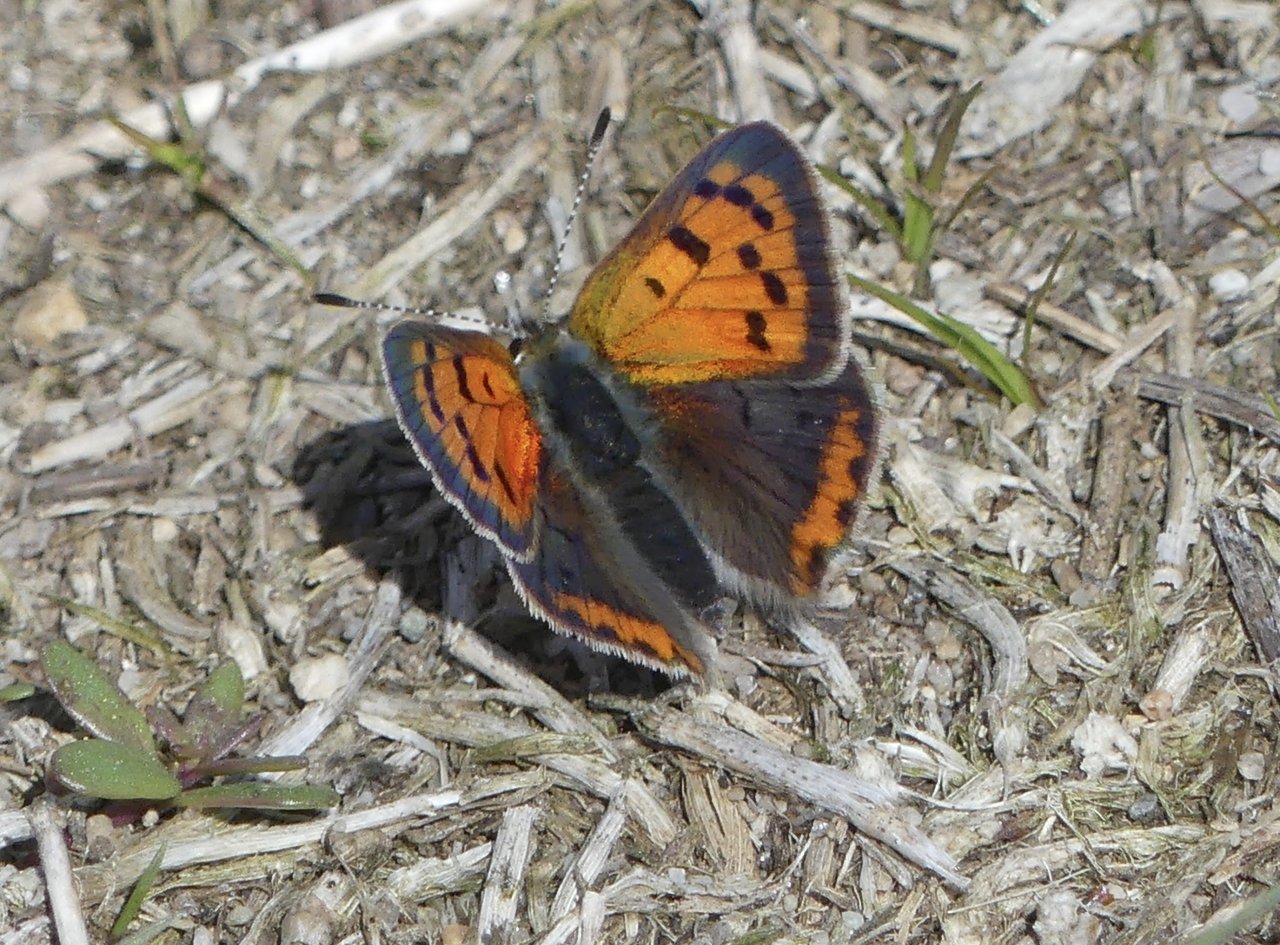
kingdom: Animalia
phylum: Arthropoda
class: Insecta
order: Lepidoptera
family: Lycaenidae
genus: Lycaena
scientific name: Lycaena phlaeas
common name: American Copper
